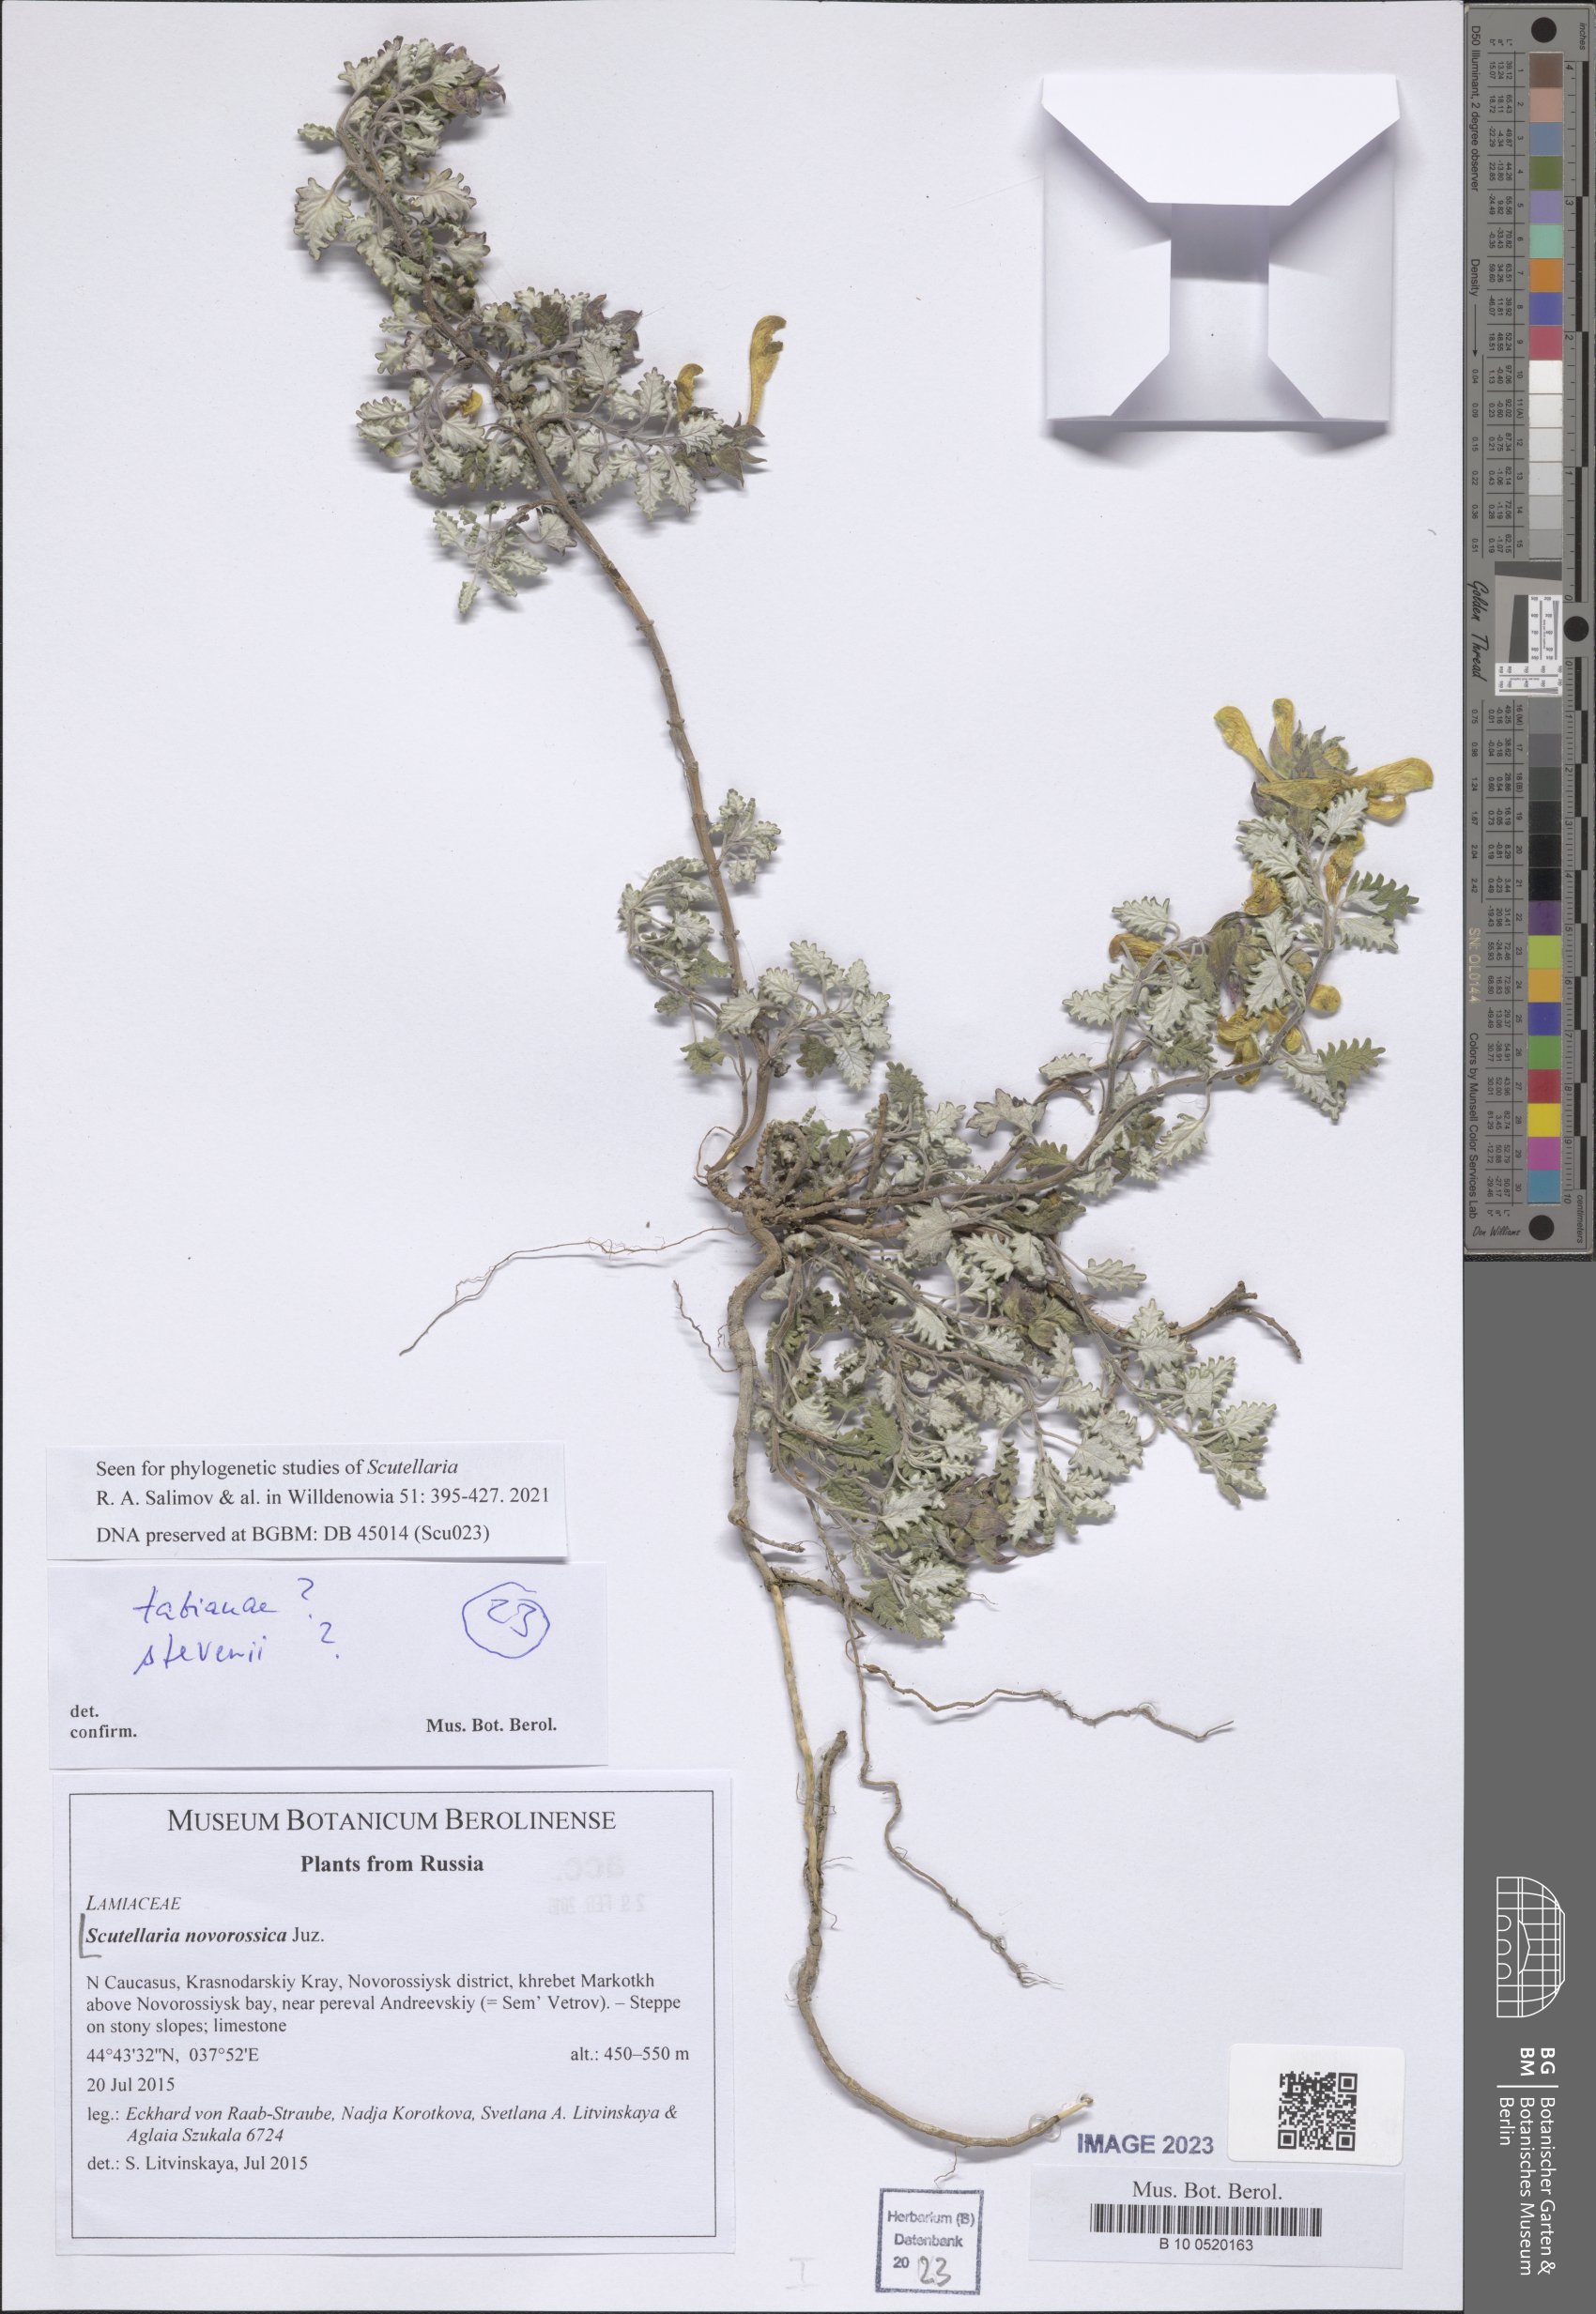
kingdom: Plantae
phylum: Tracheophyta
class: Magnoliopsida
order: Lamiales
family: Lamiaceae
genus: Scutellaria
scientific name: Scutellaria novorossica
